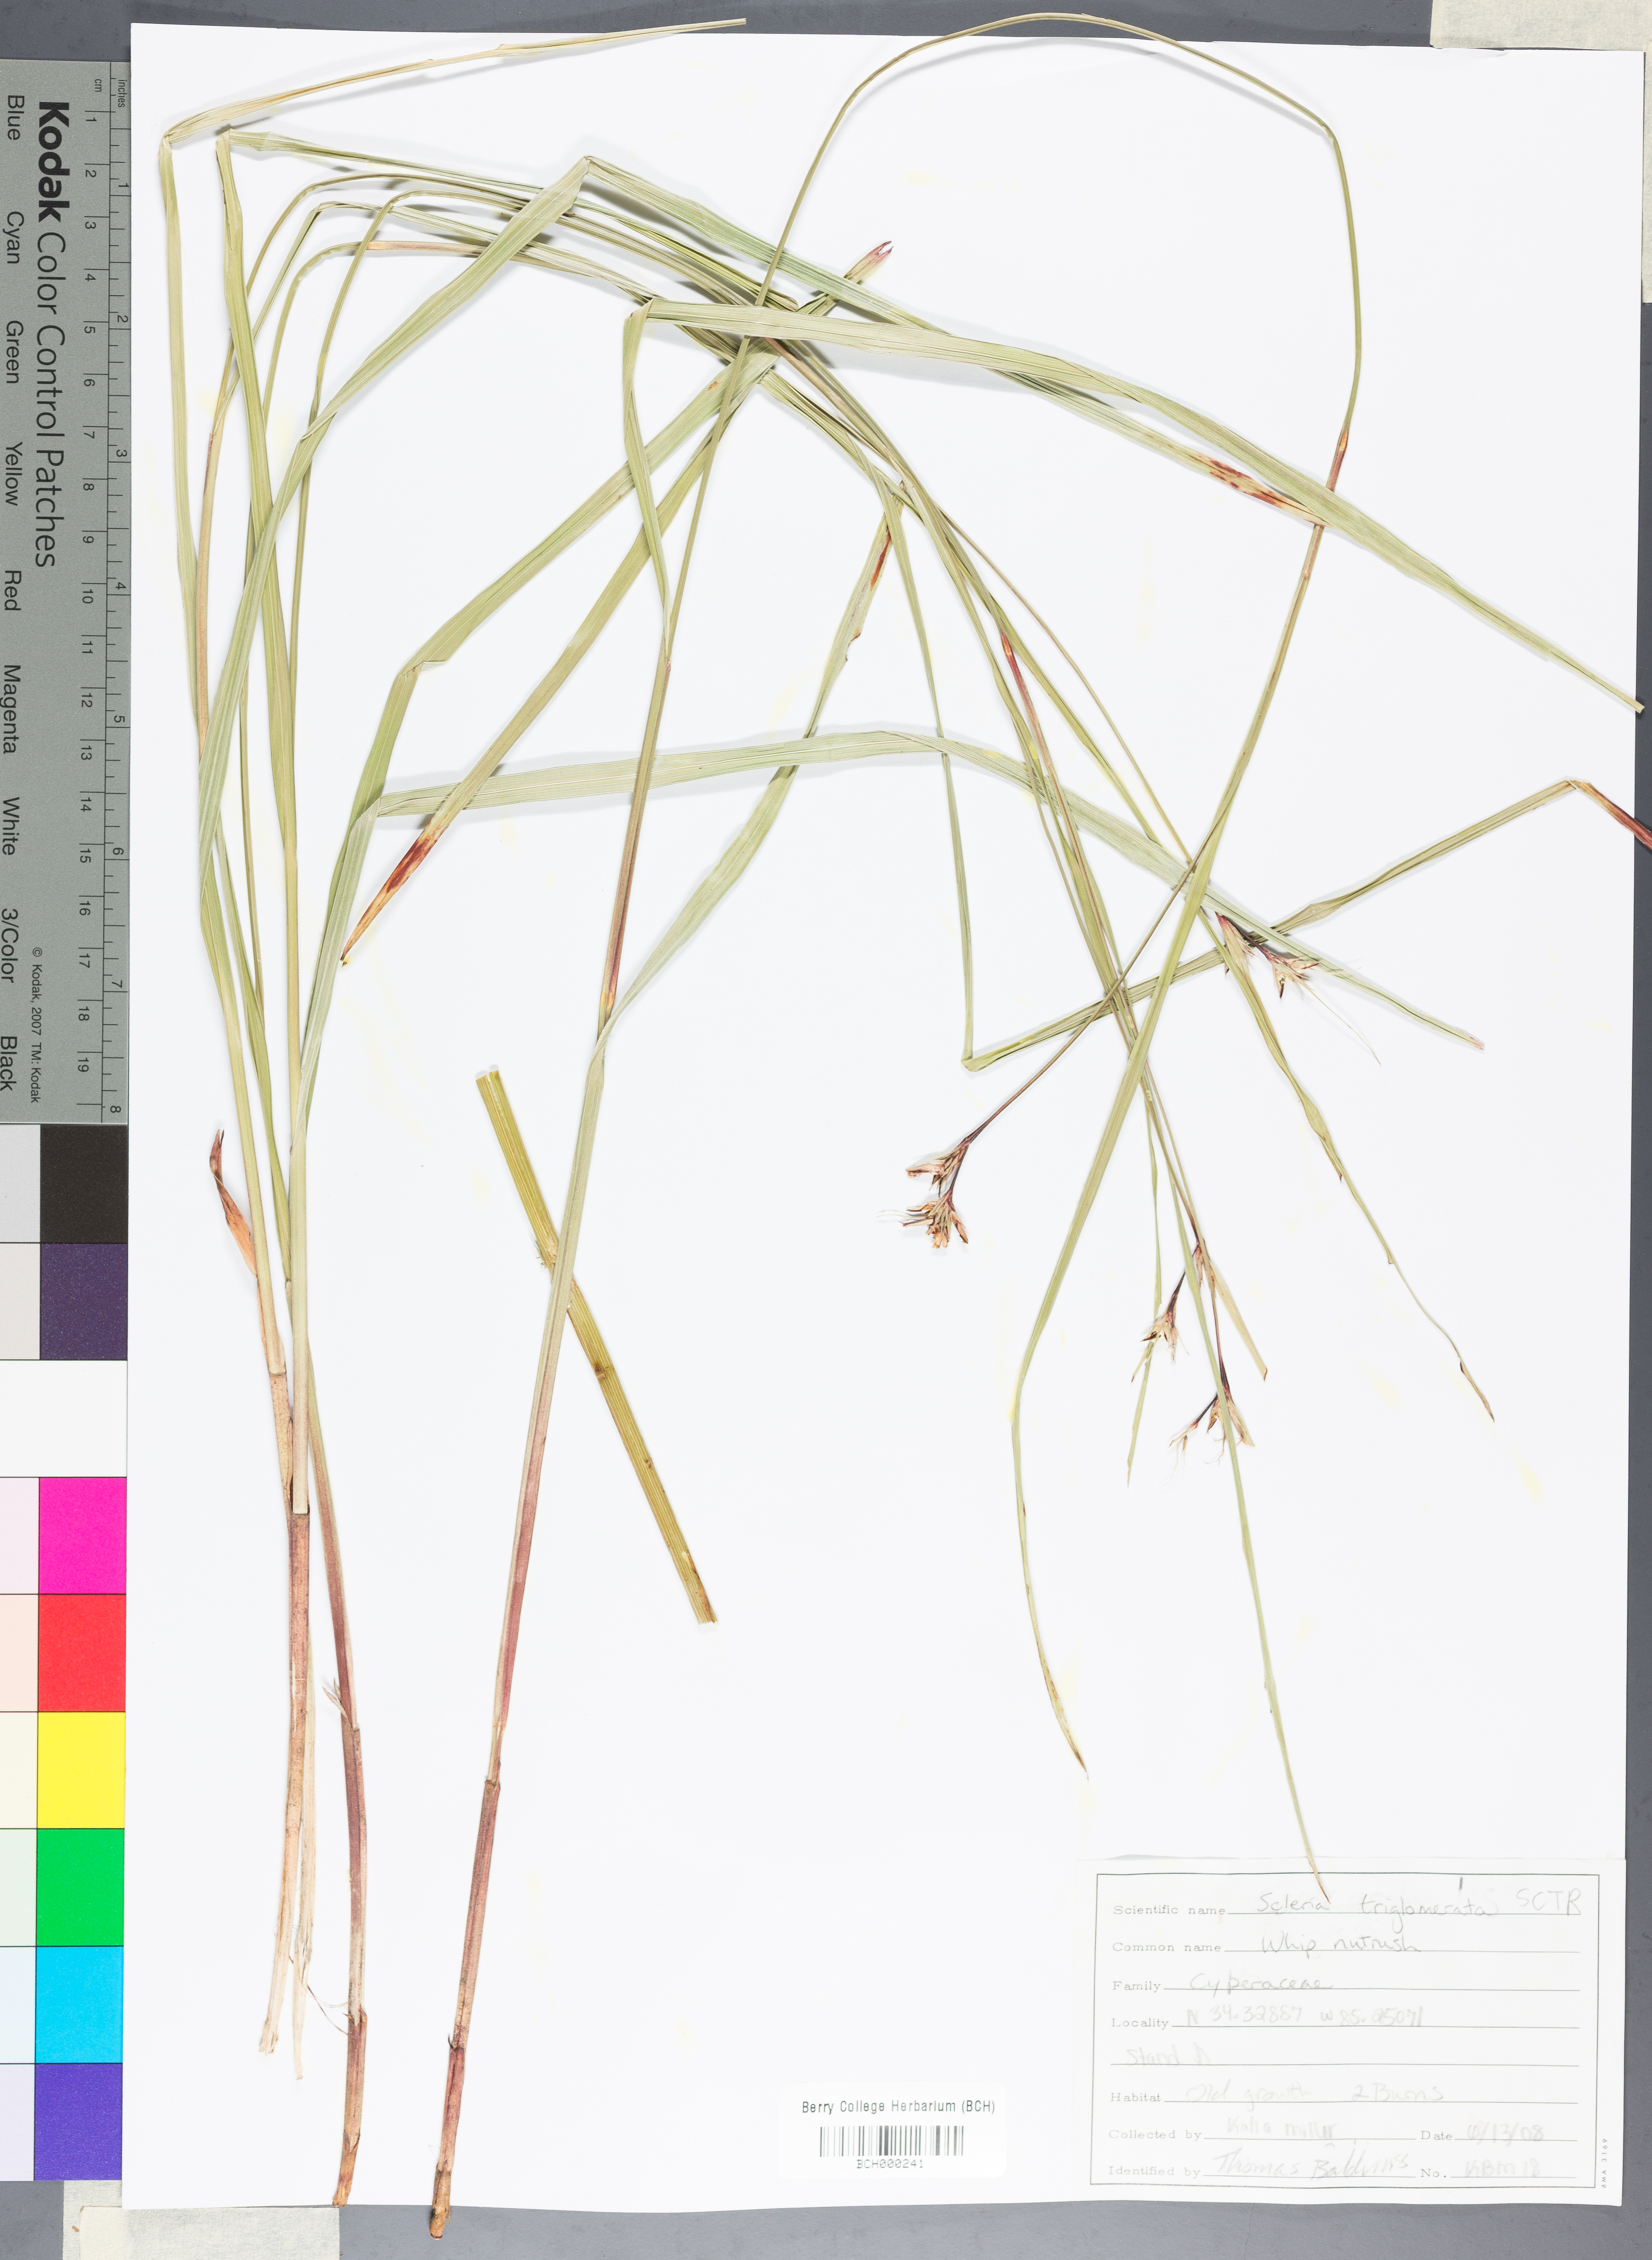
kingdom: Plantae
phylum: Tracheophyta
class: Liliopsida
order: Poales
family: Cyperaceae
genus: Scleria
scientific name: Scleria triglomerata
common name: Whip nutrush
